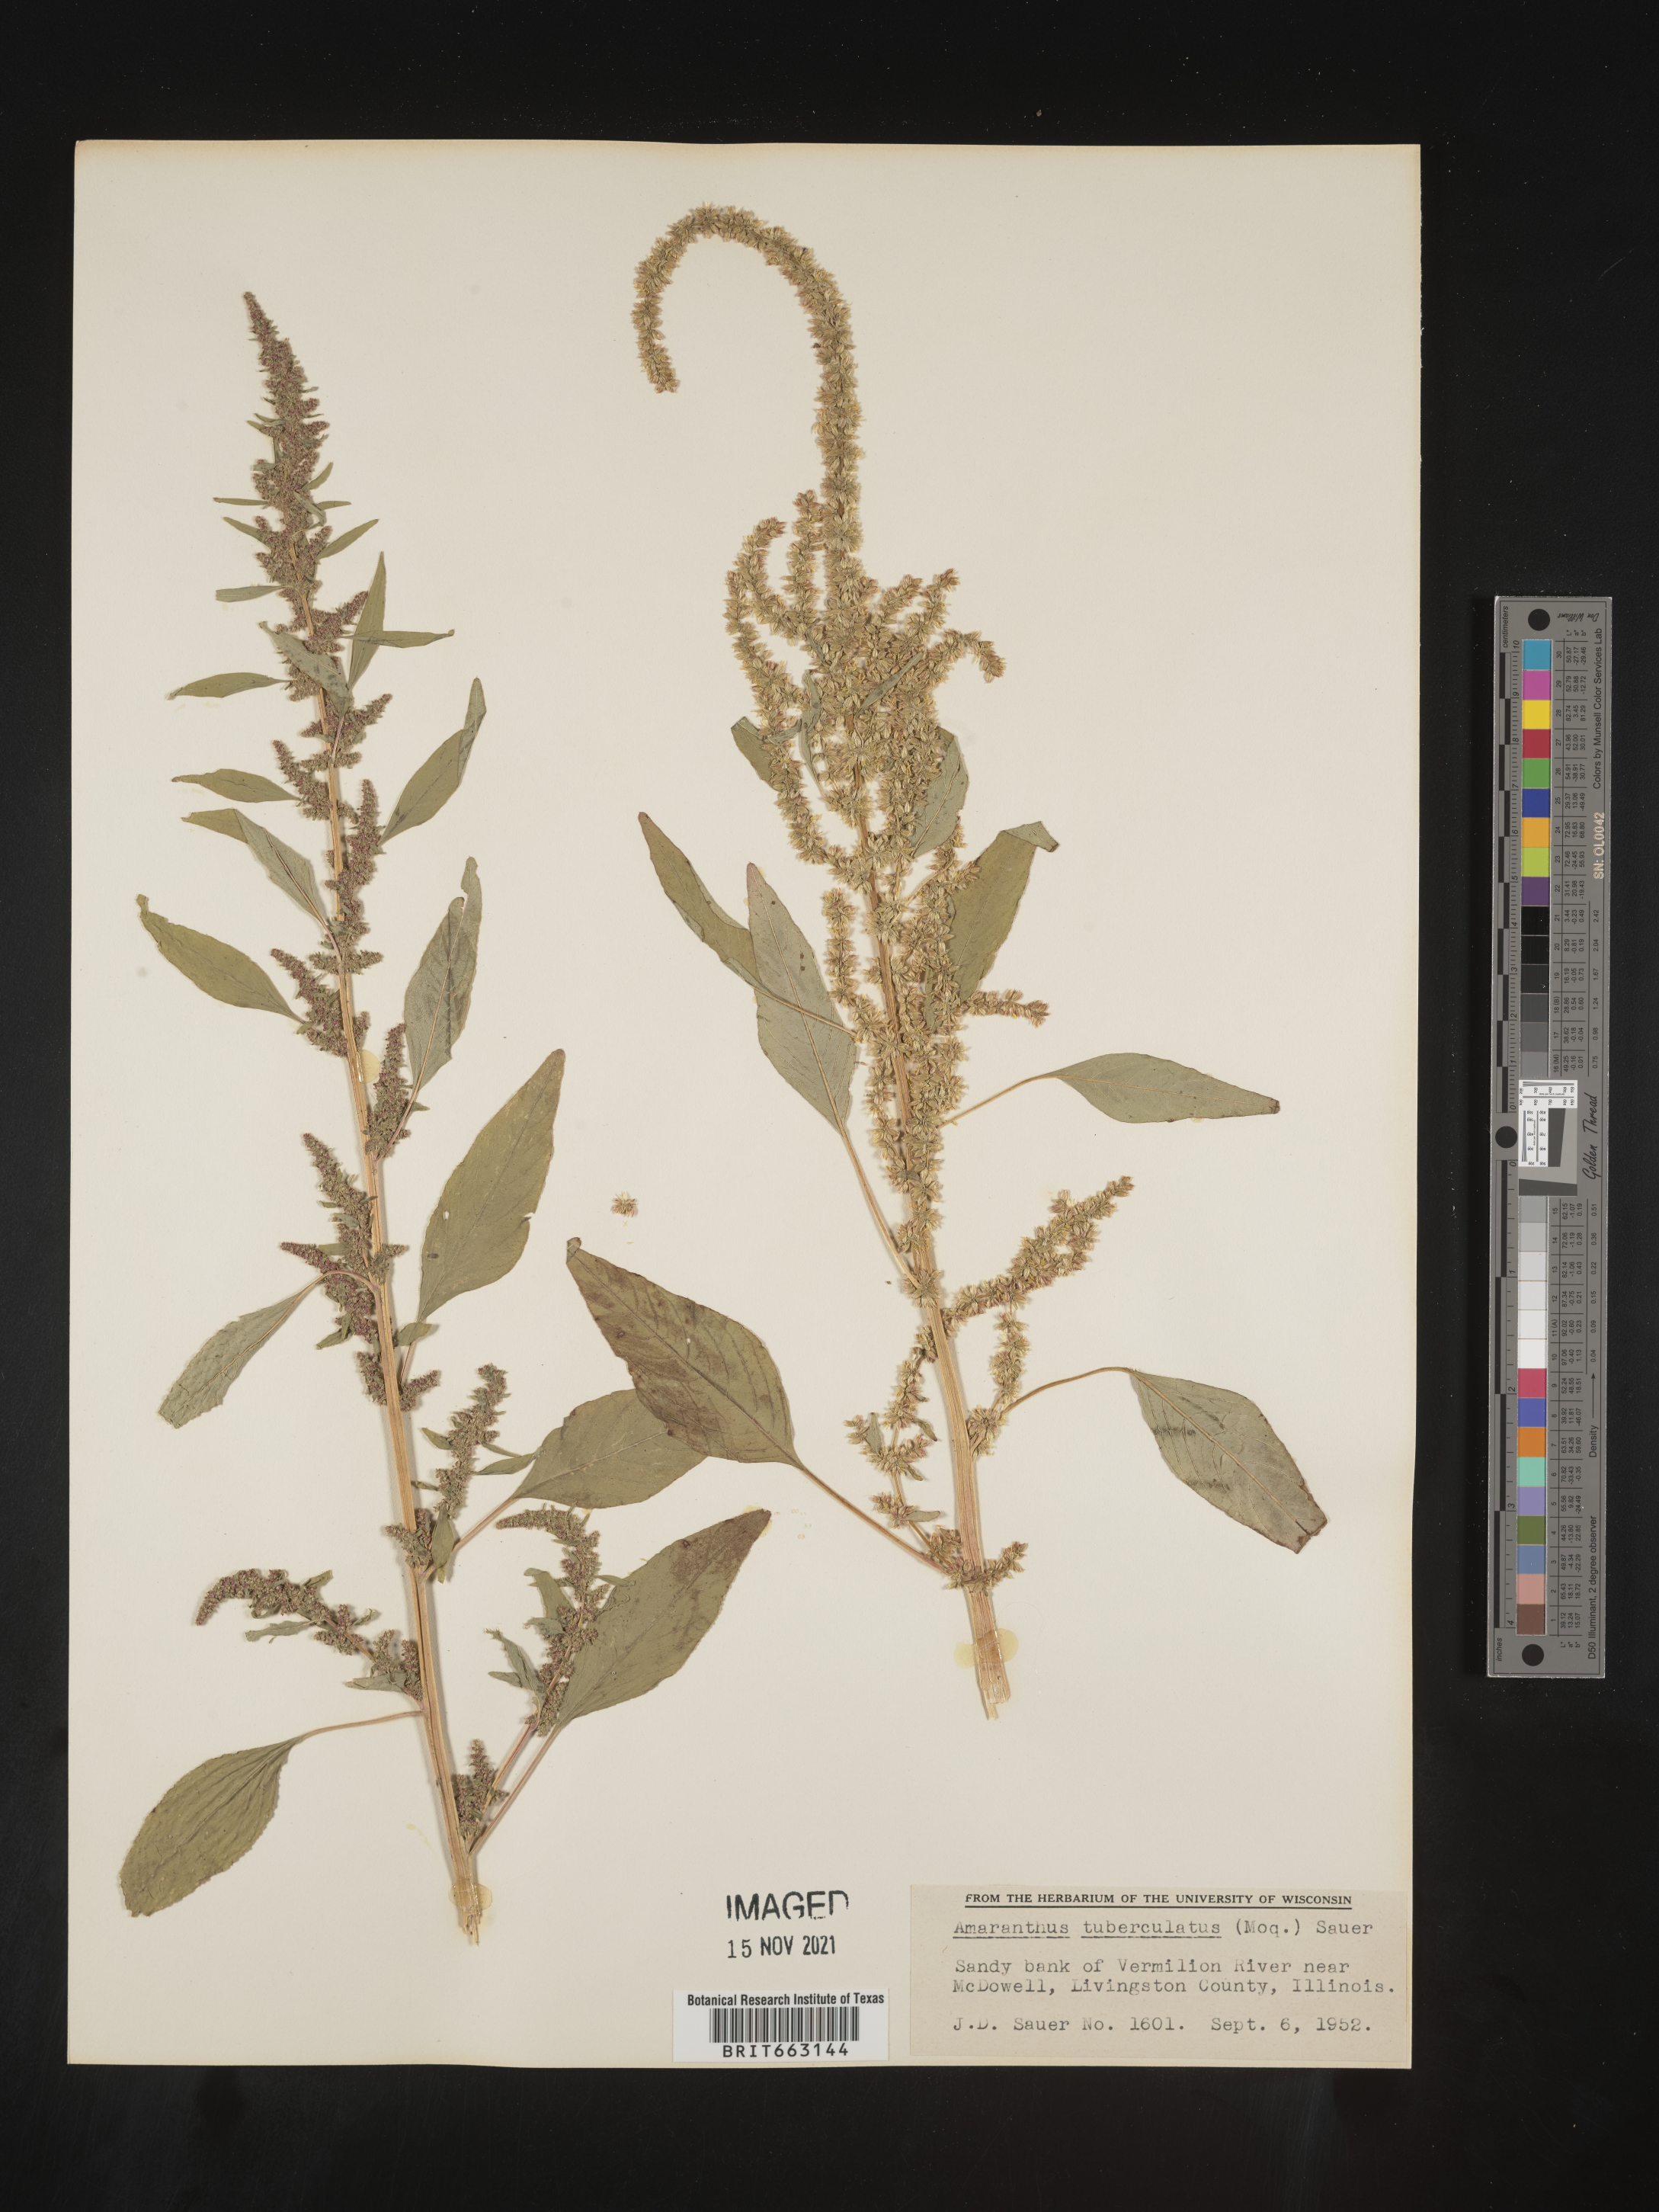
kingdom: Plantae
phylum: Tracheophyta
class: Magnoliopsida
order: Caryophyllales
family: Amaranthaceae
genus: Amaranthus
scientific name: Amaranthus tuberculatus
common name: Rough-fruit amaranth
